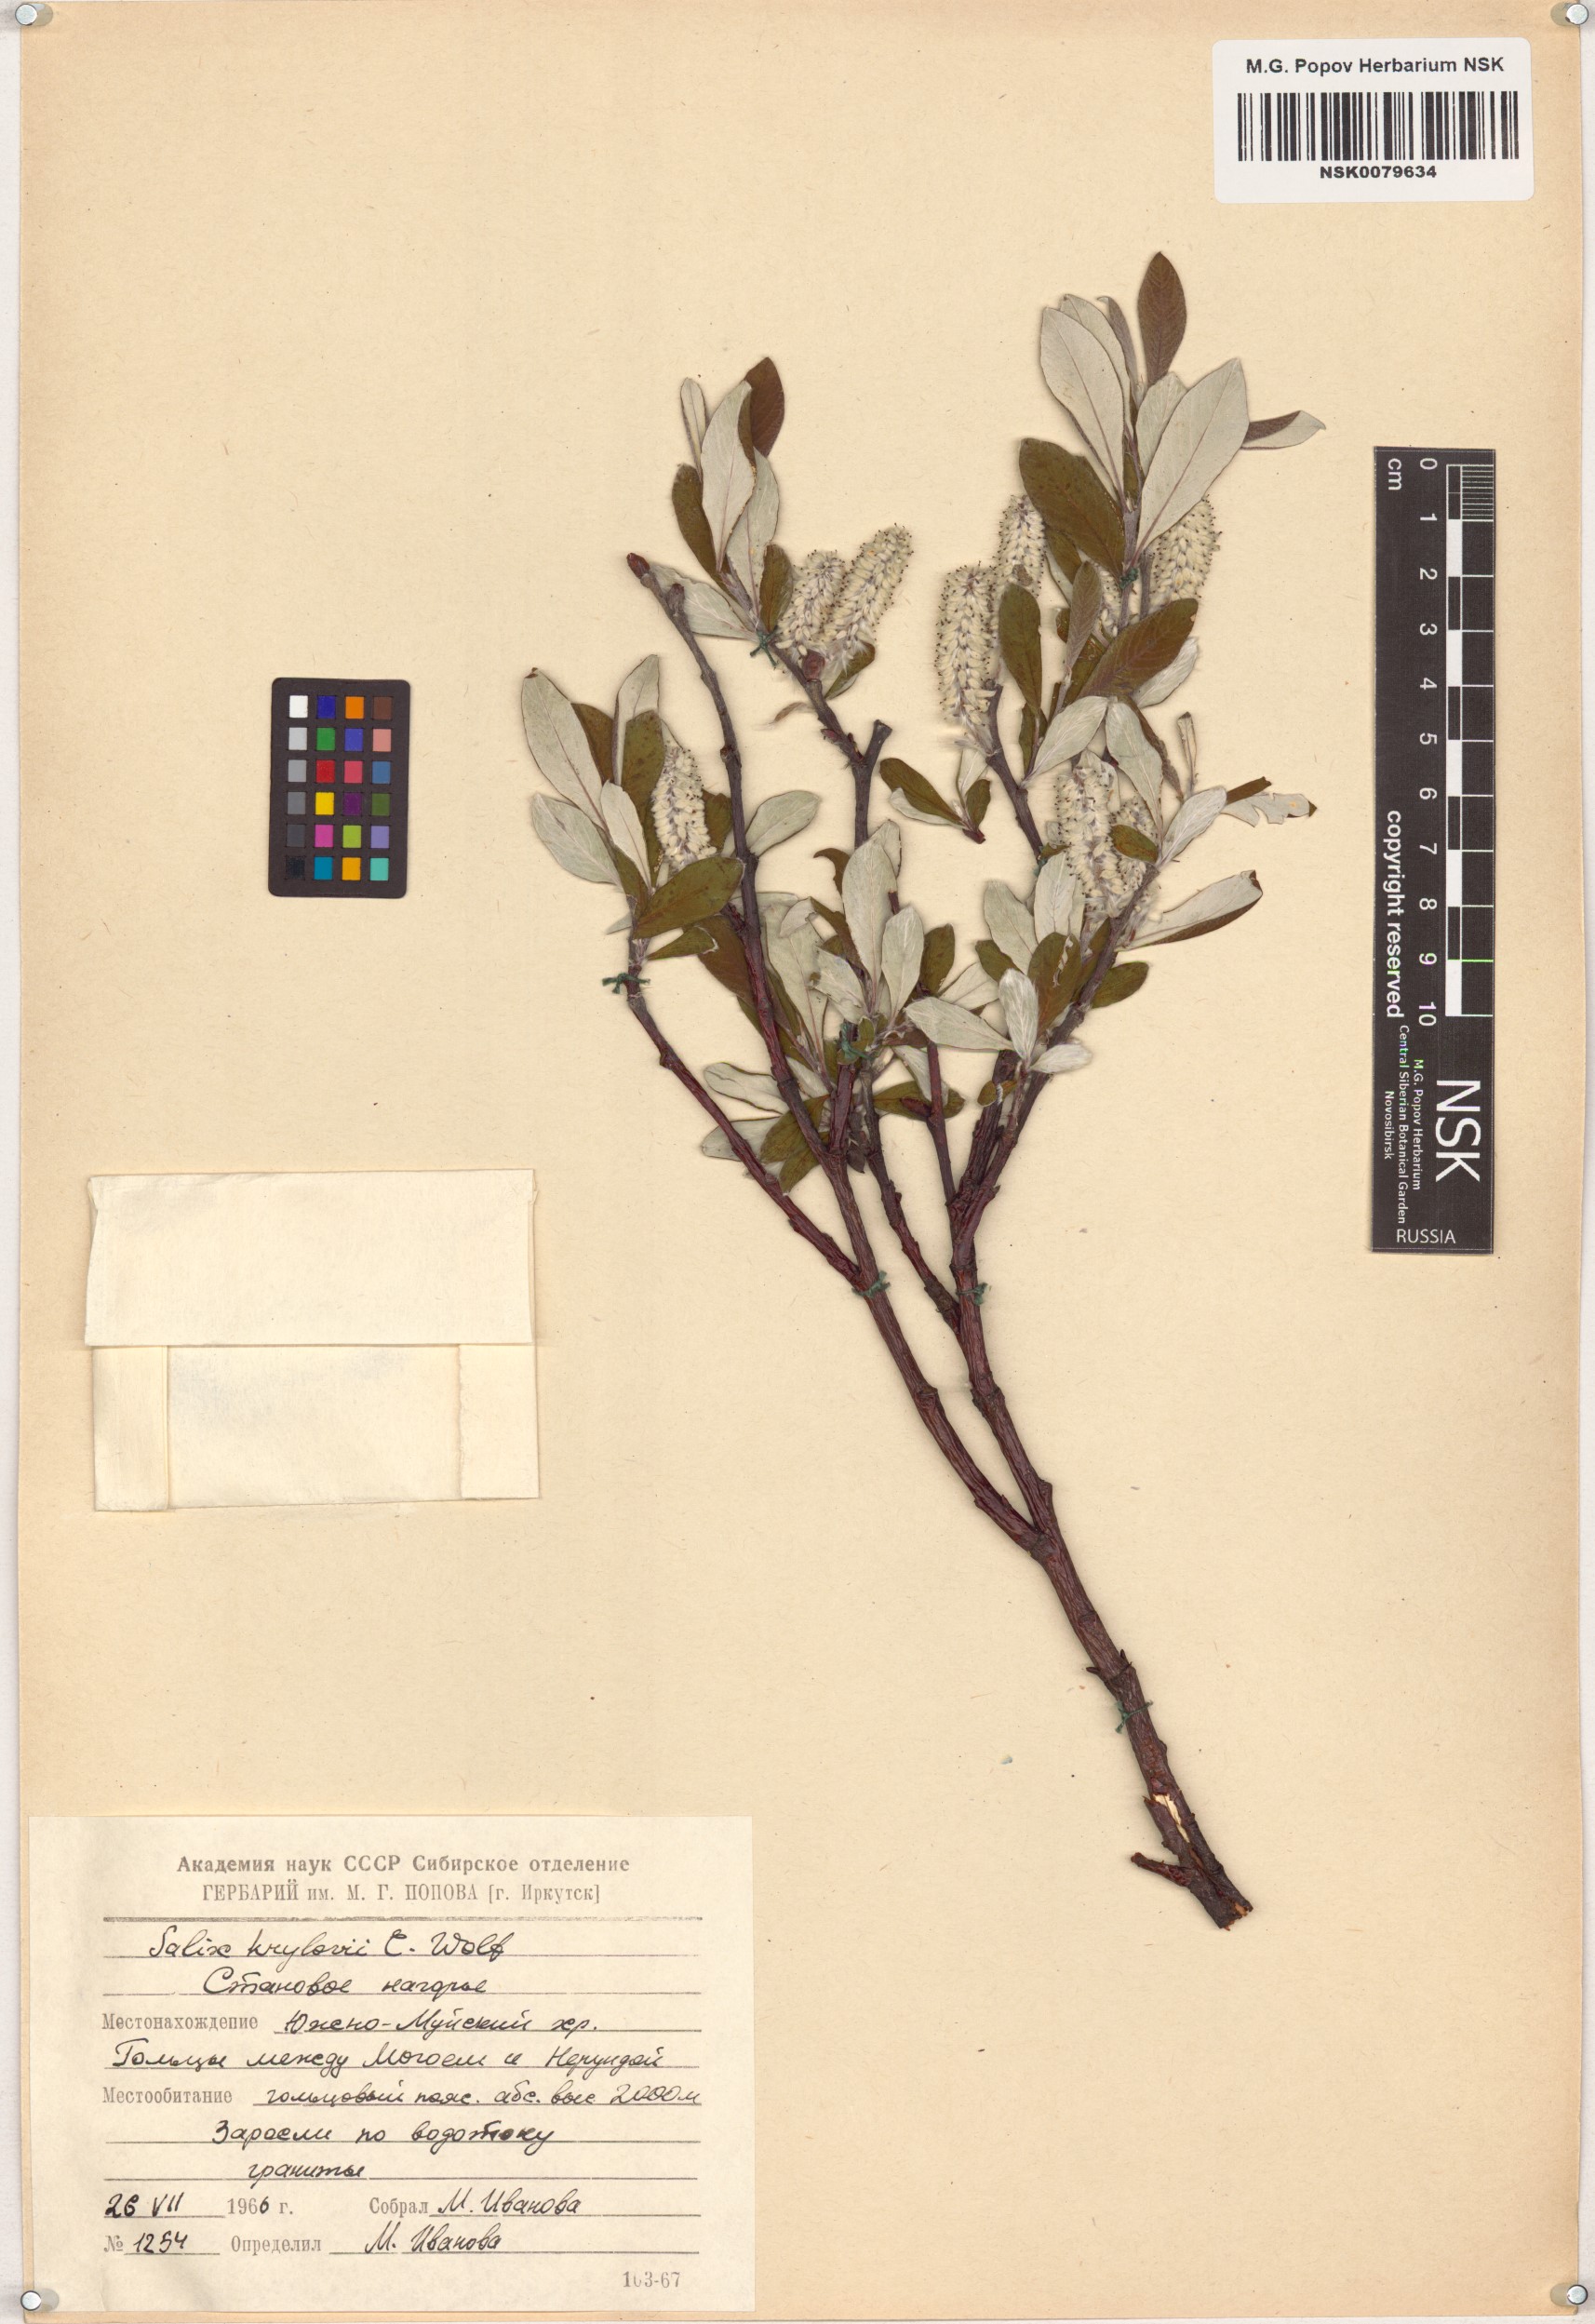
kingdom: Plantae
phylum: Tracheophyta
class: Magnoliopsida
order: Malpighiales
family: Salicaceae
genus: Salix
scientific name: Salix krylovii
